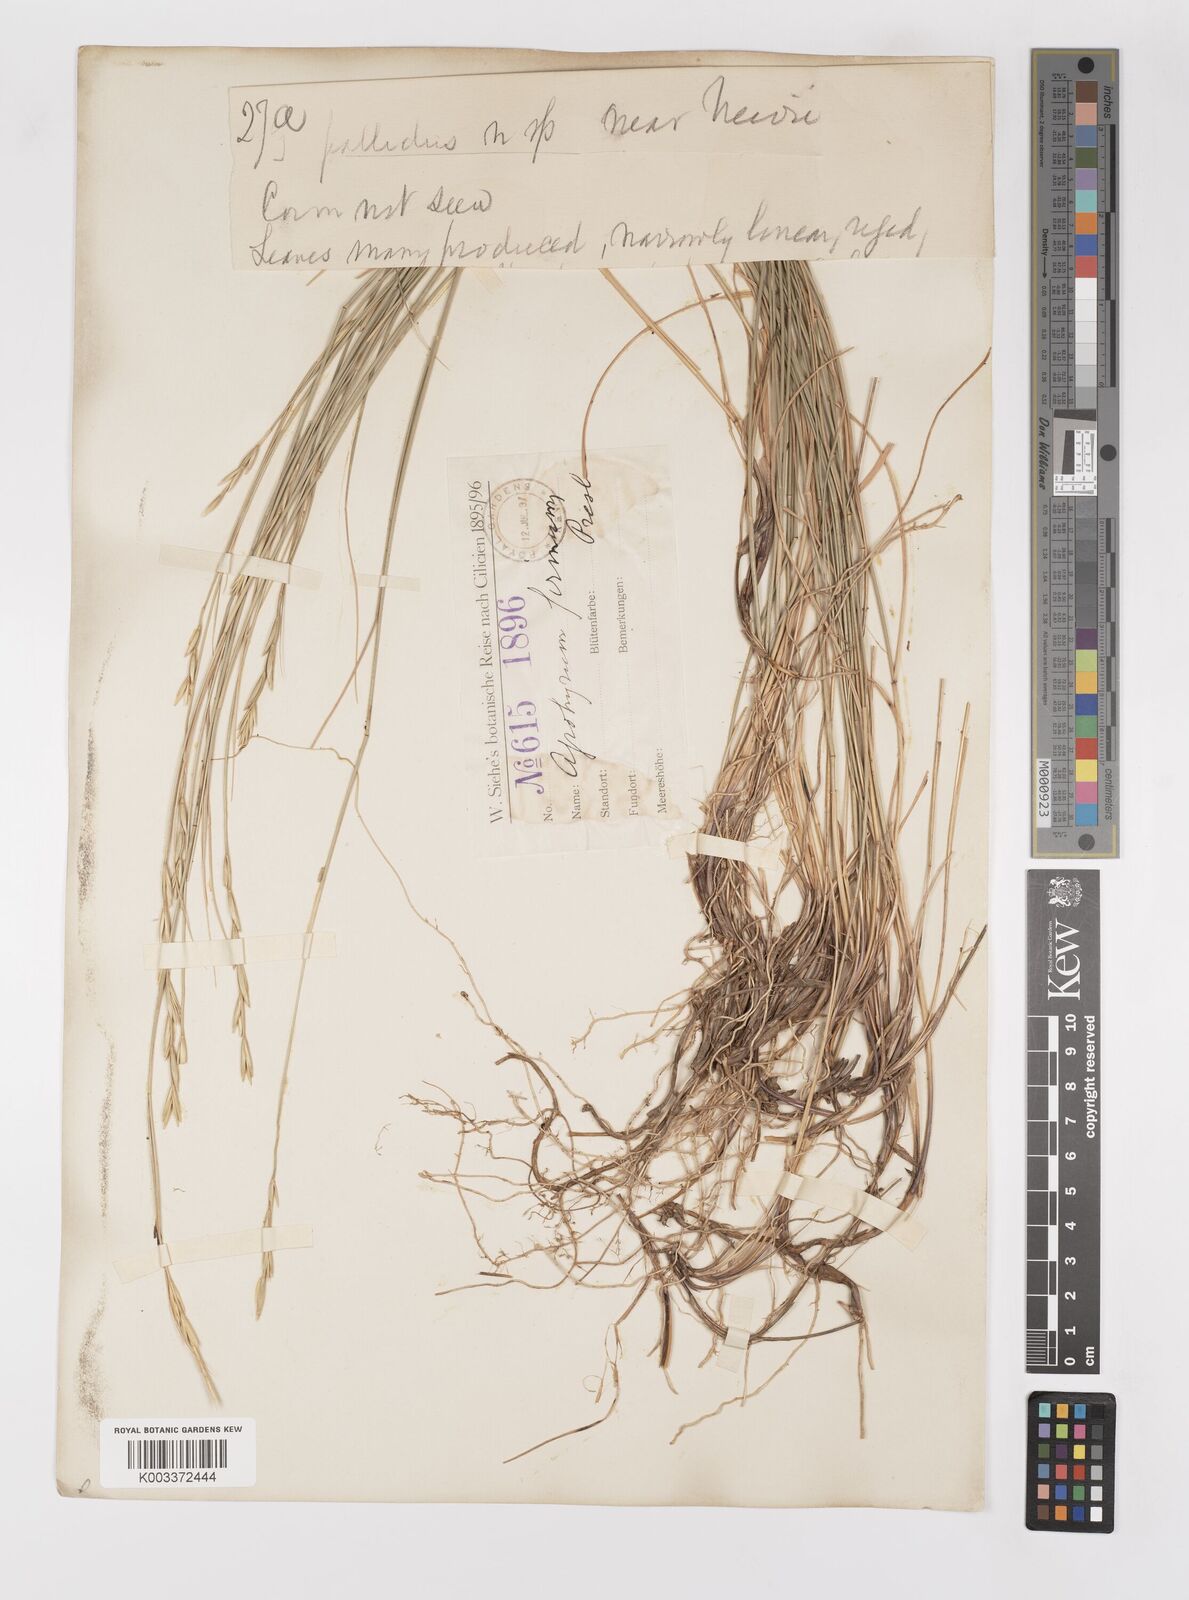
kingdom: Plantae
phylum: Tracheophyta
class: Liliopsida
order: Poales
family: Poaceae
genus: Elymus
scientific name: Elymus repens
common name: Quackgrass
